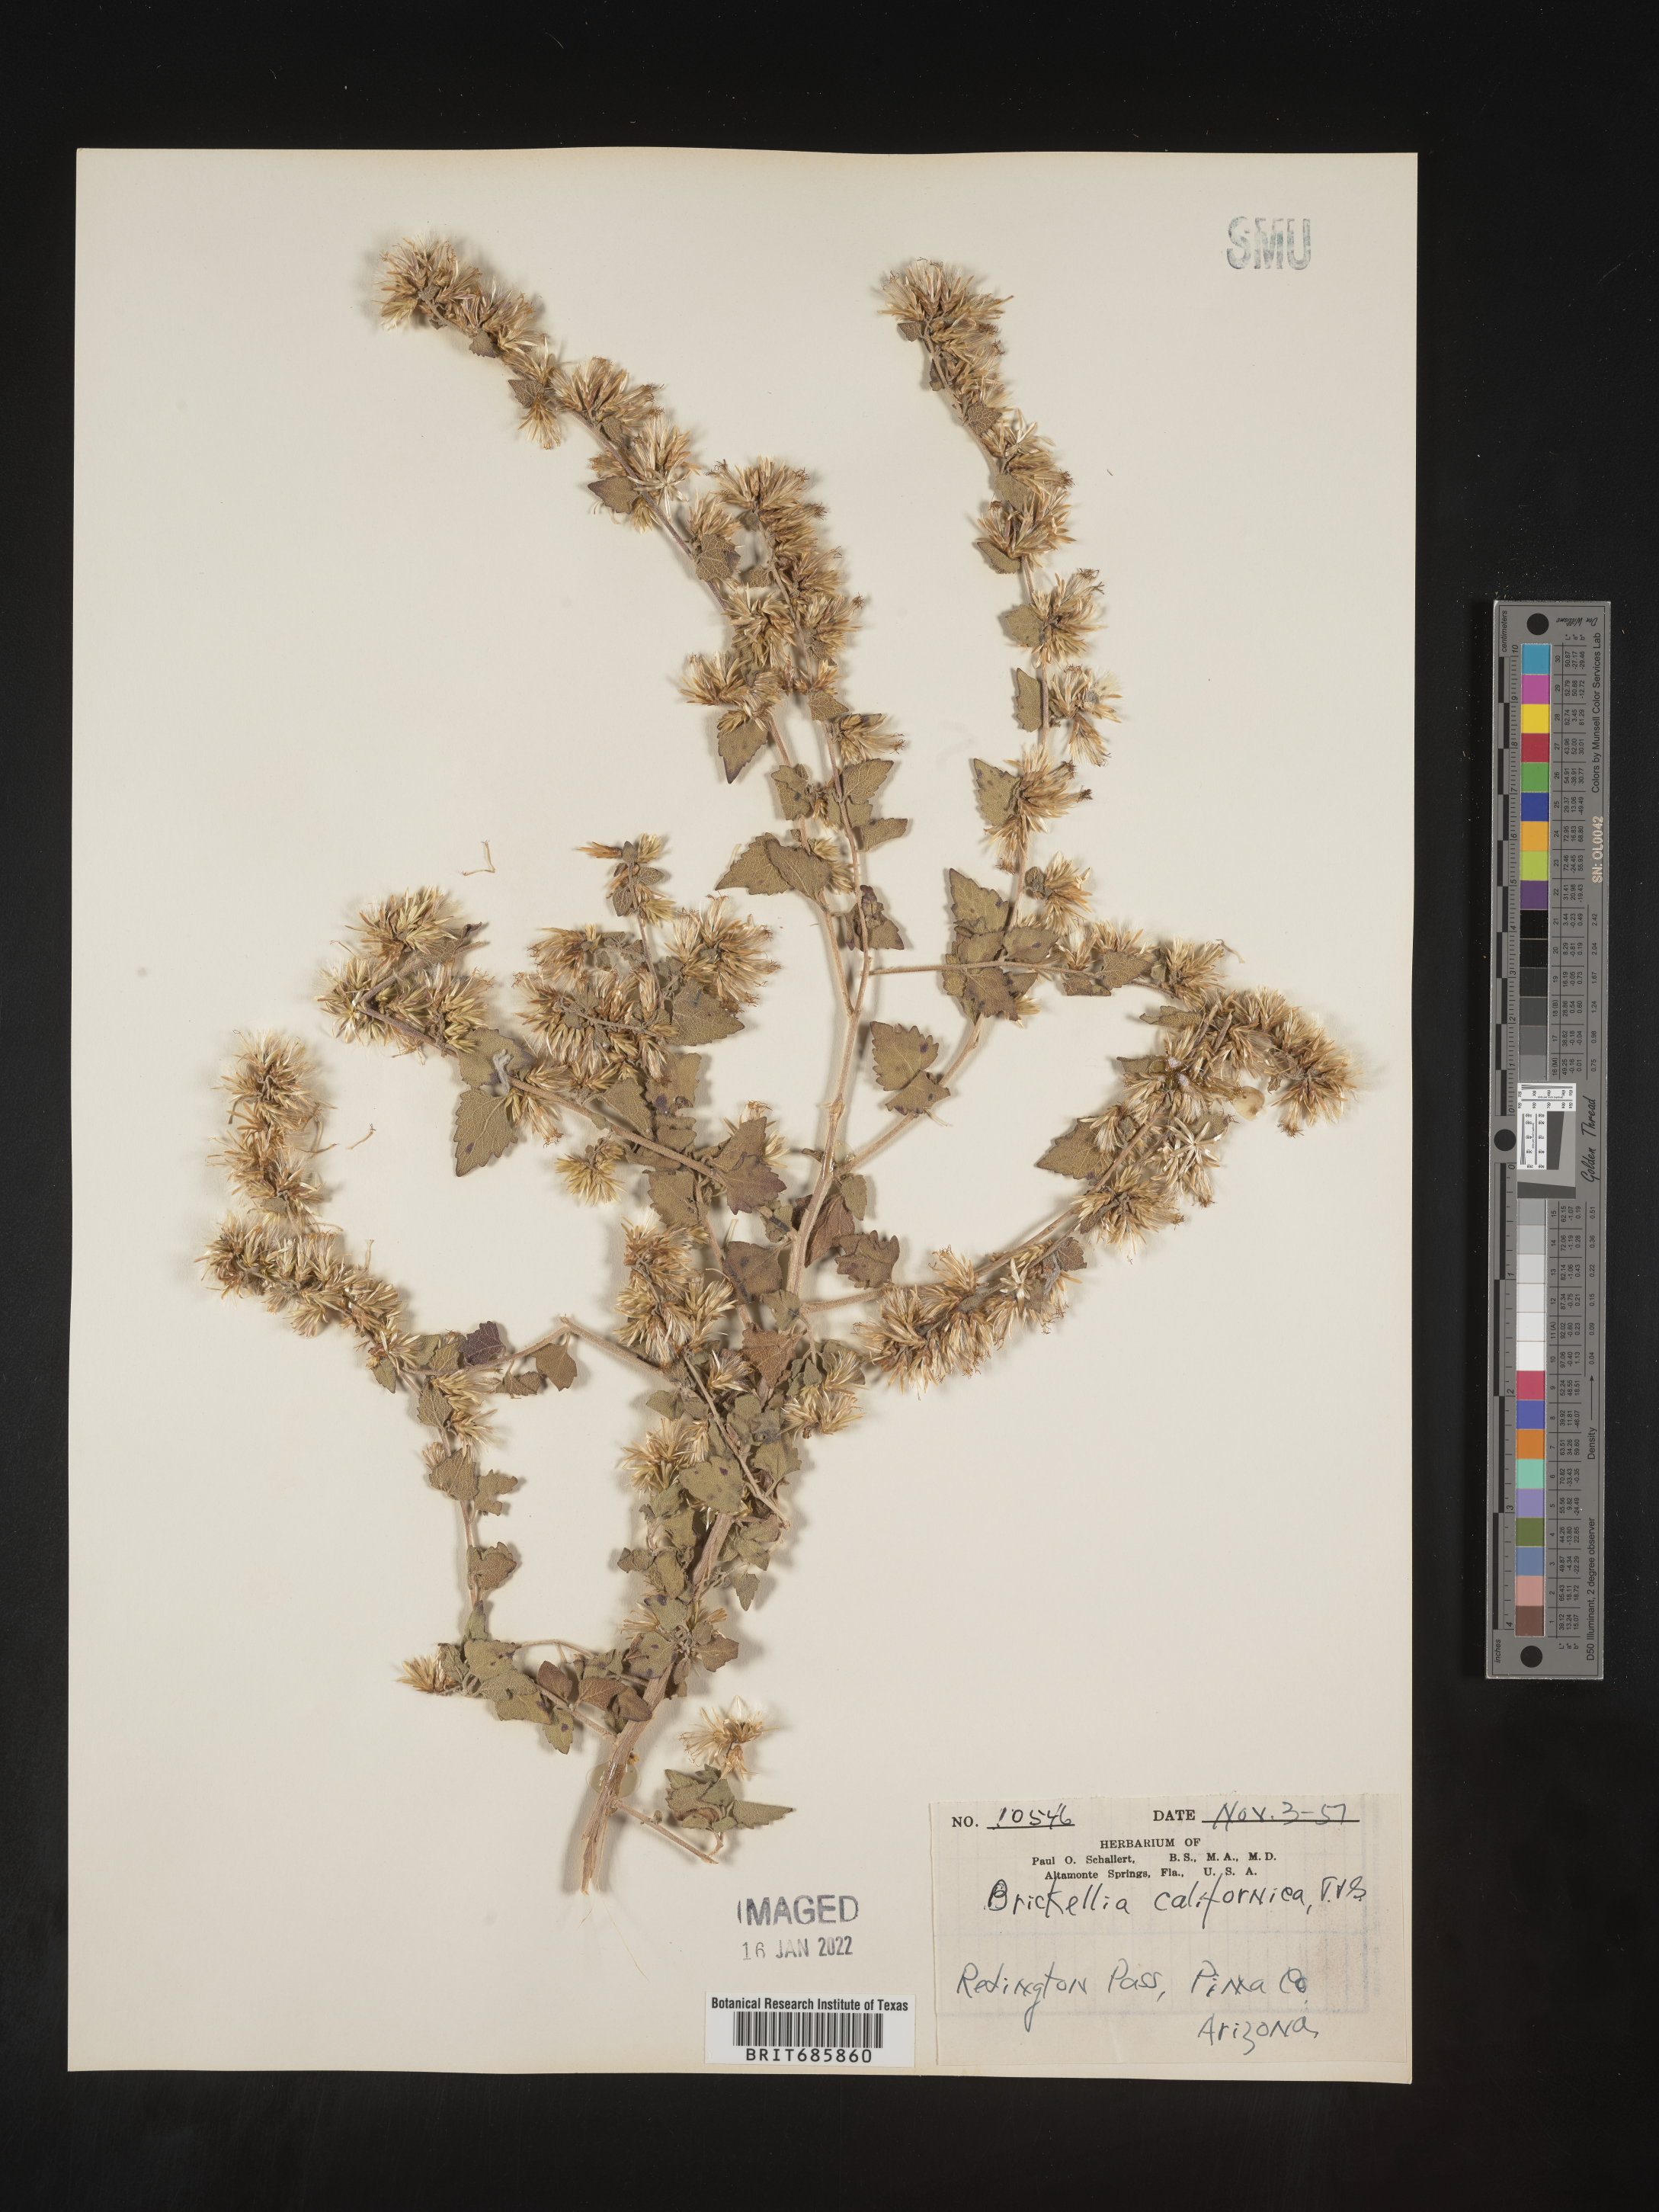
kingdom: Plantae
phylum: Tracheophyta
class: Magnoliopsida
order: Asterales
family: Asteraceae
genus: Brickellia
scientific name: Brickellia californica
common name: California brickellbush
